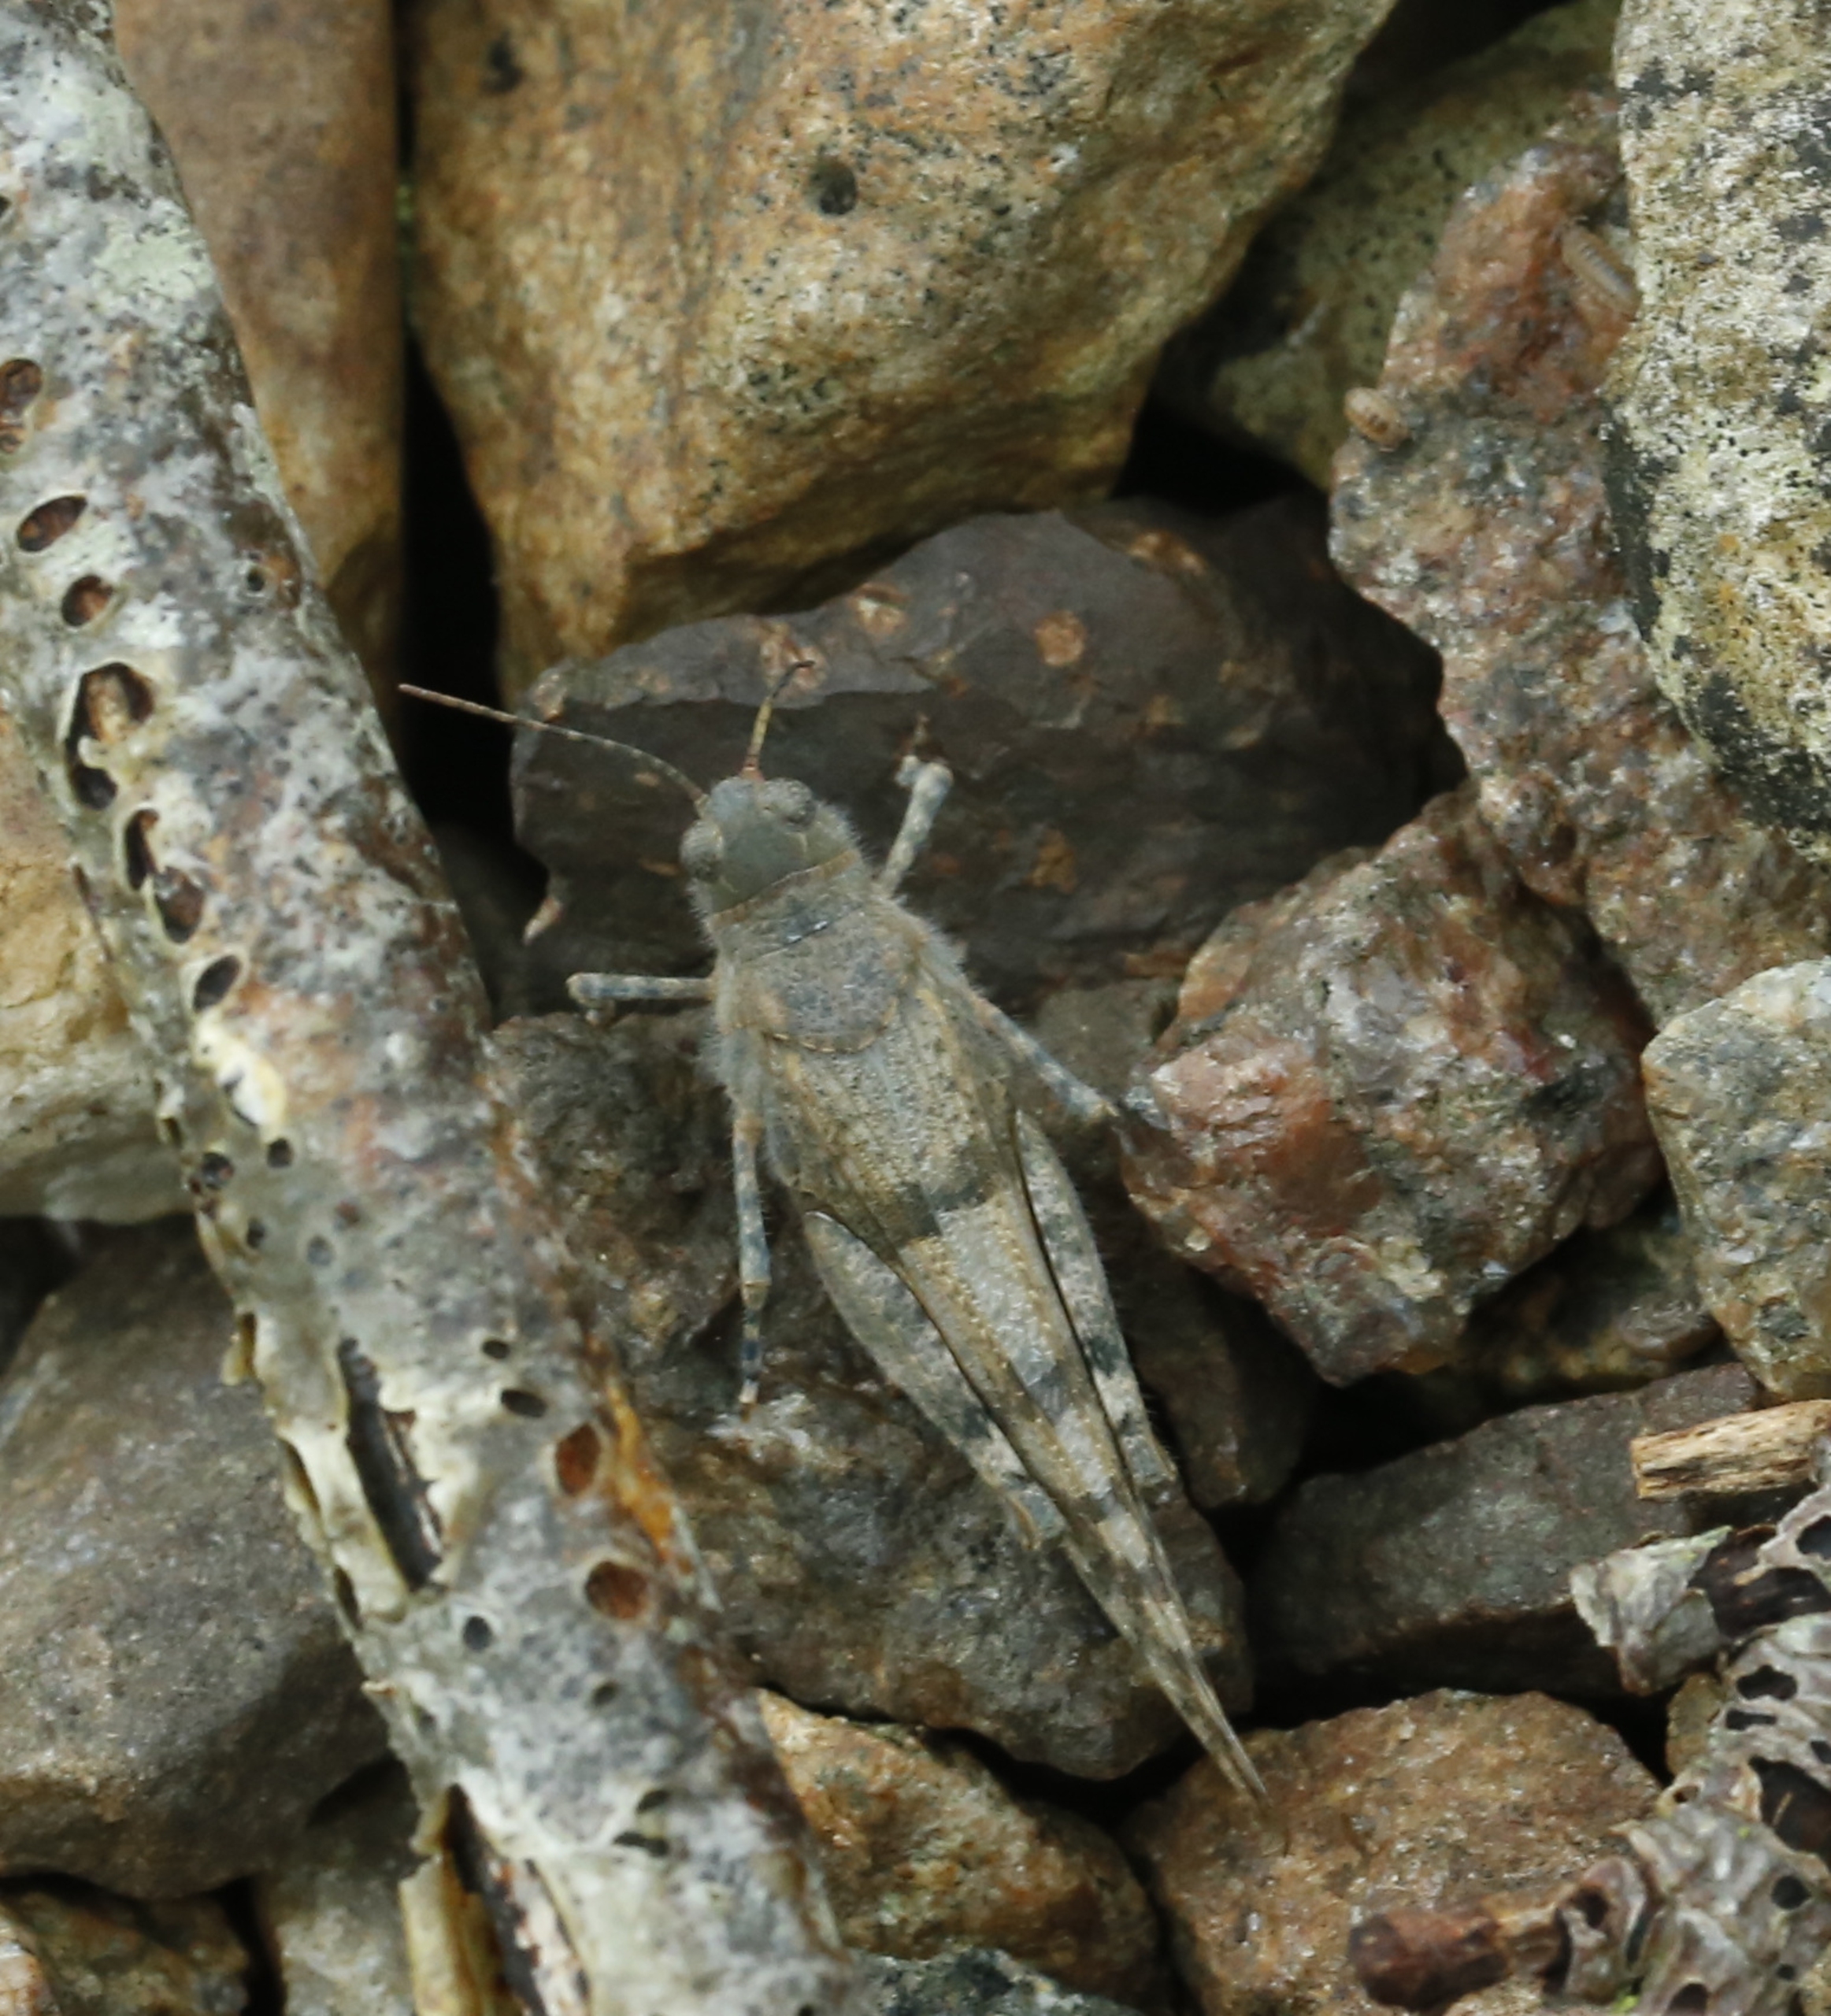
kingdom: Animalia
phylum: Arthropoda
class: Insecta
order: Orthoptera
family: Acrididae
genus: Sphingonotus
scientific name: Sphingonotus caerulans
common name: Blåvinget steppegræshoppe
